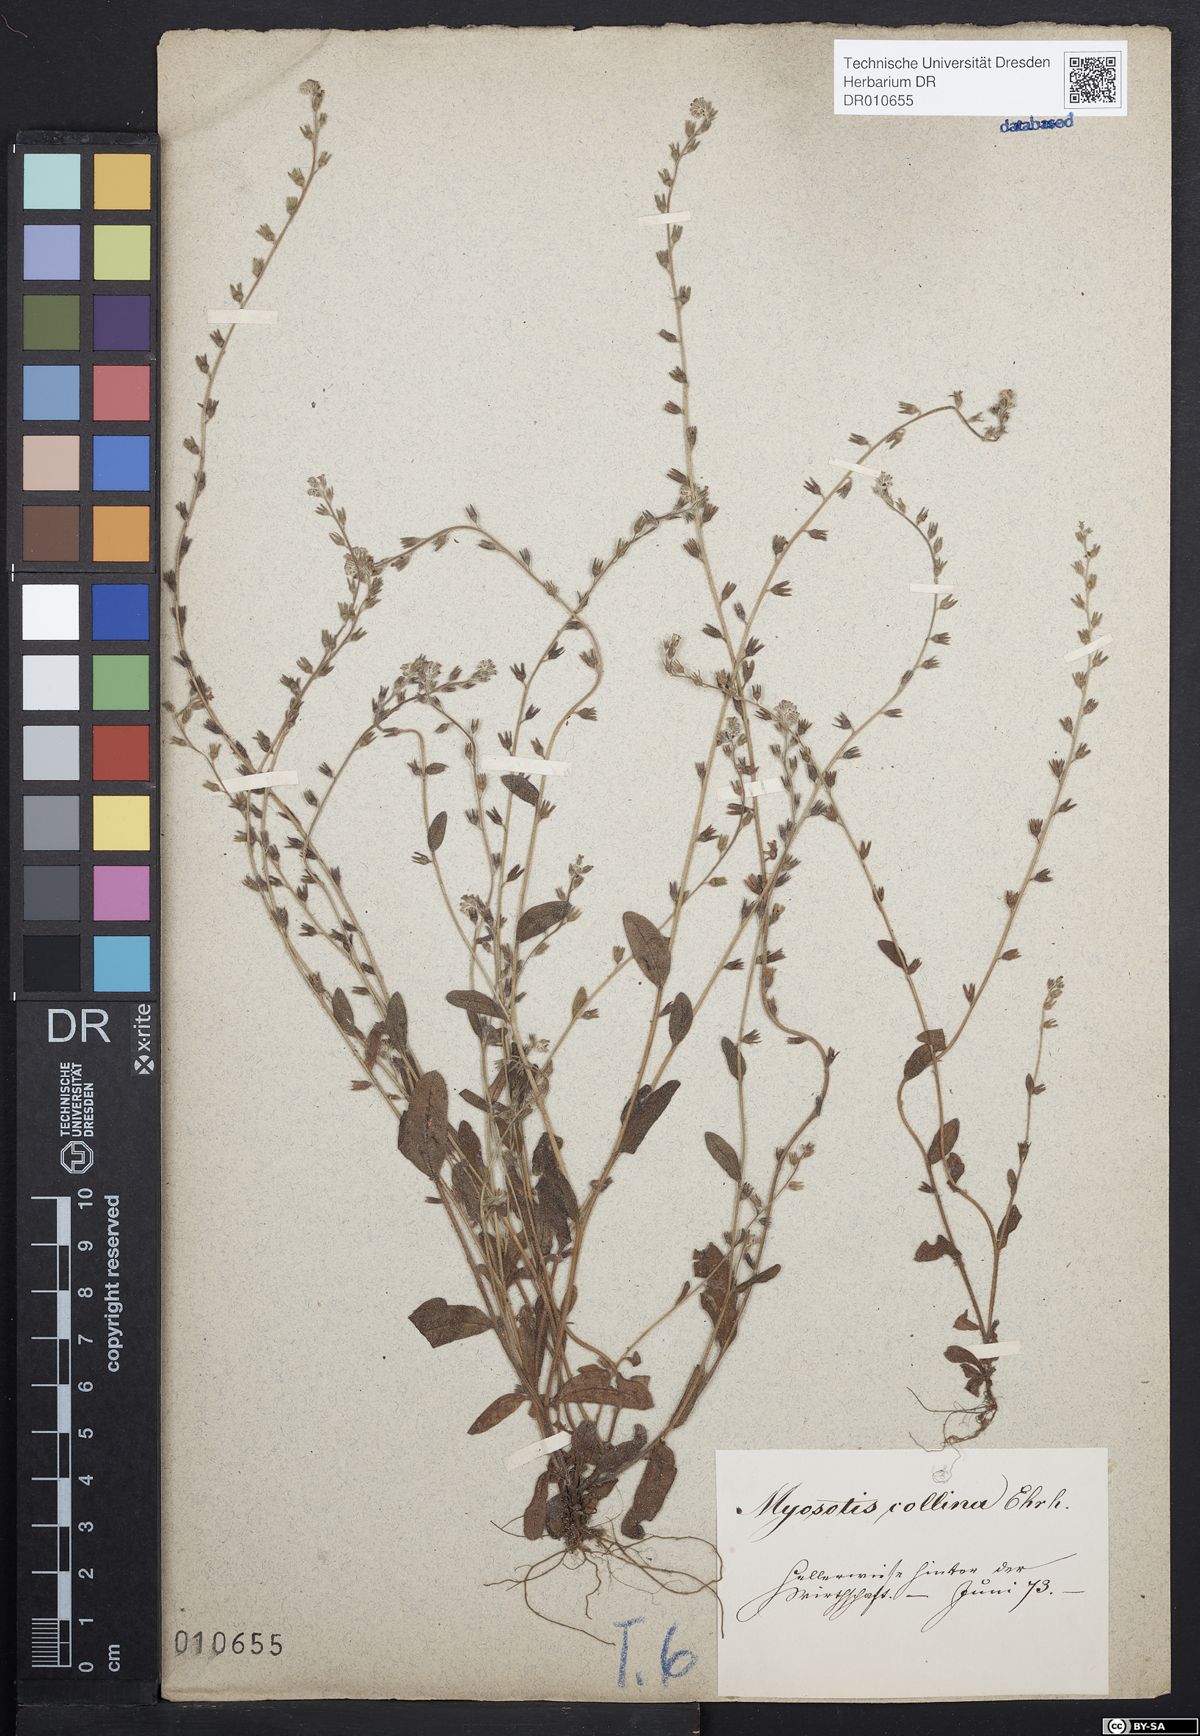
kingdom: Plantae
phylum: Tracheophyta
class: Magnoliopsida
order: Boraginales
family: Boraginaceae
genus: Myosotis
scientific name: Myosotis ramosissima
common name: Early forget-me-not
